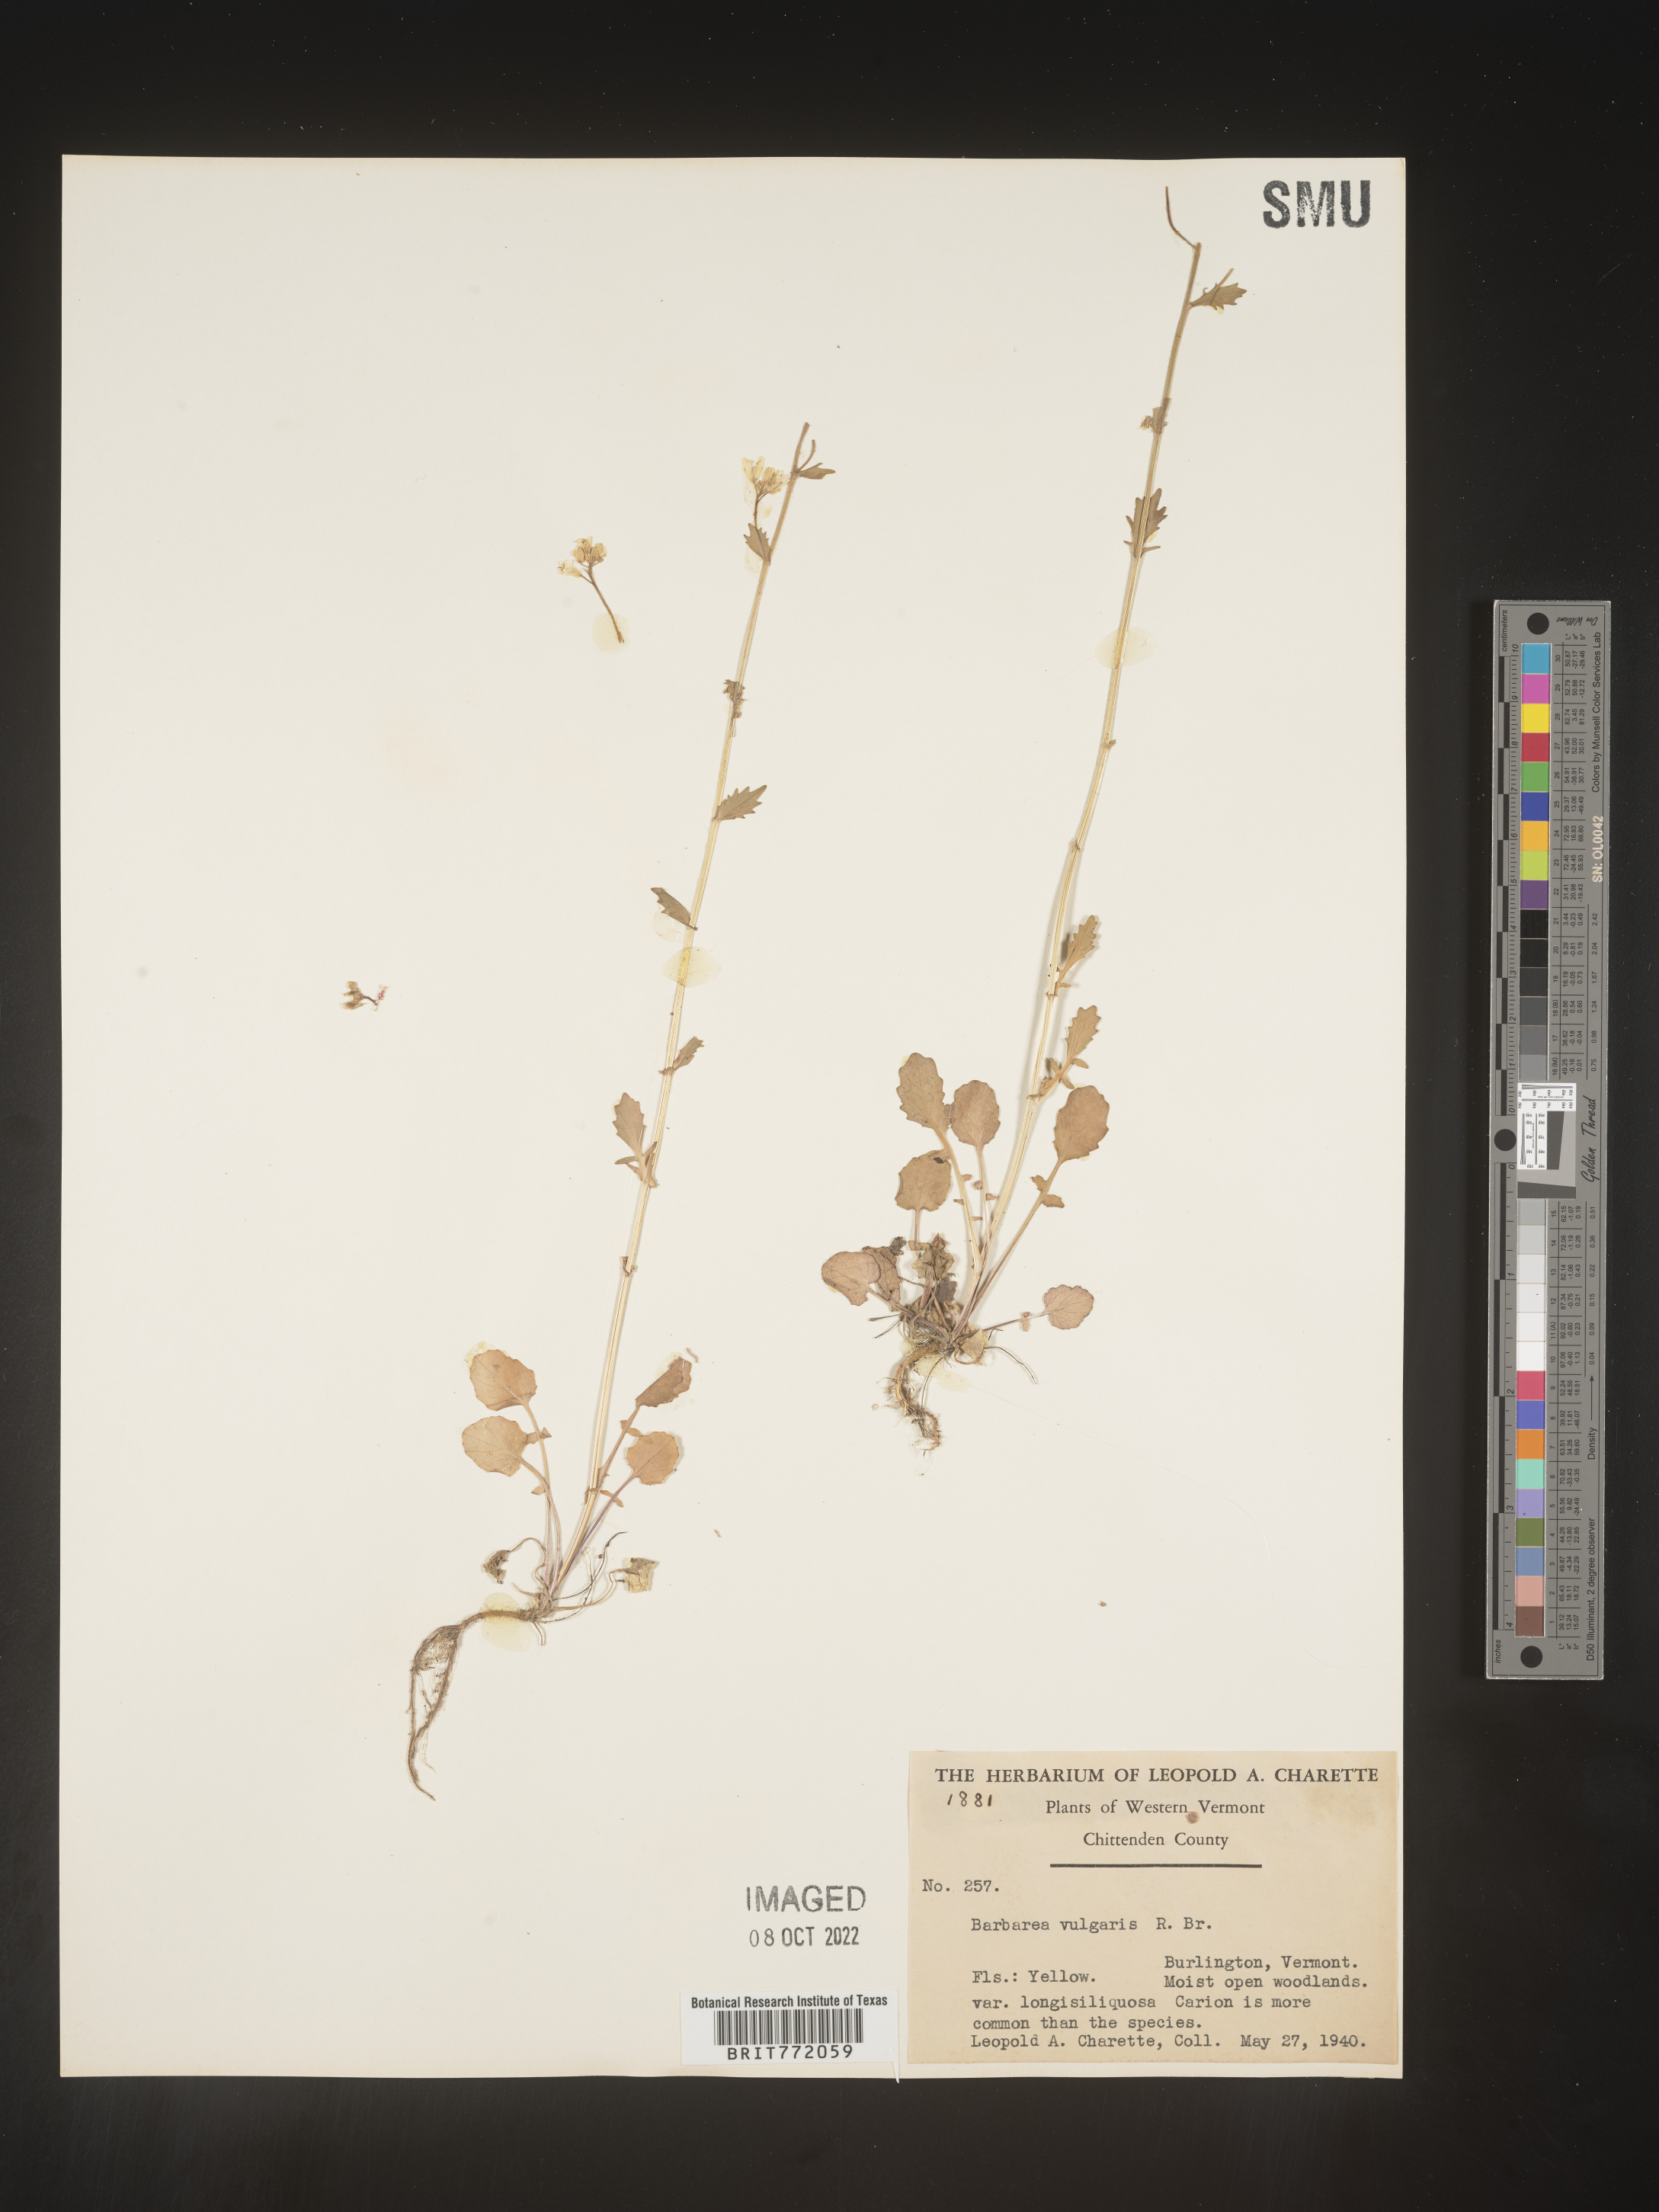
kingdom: Plantae
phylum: Tracheophyta
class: Magnoliopsida
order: Brassicales
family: Brassicaceae
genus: Barbarea
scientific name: Barbarea vulgaris
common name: Cressy-greens
